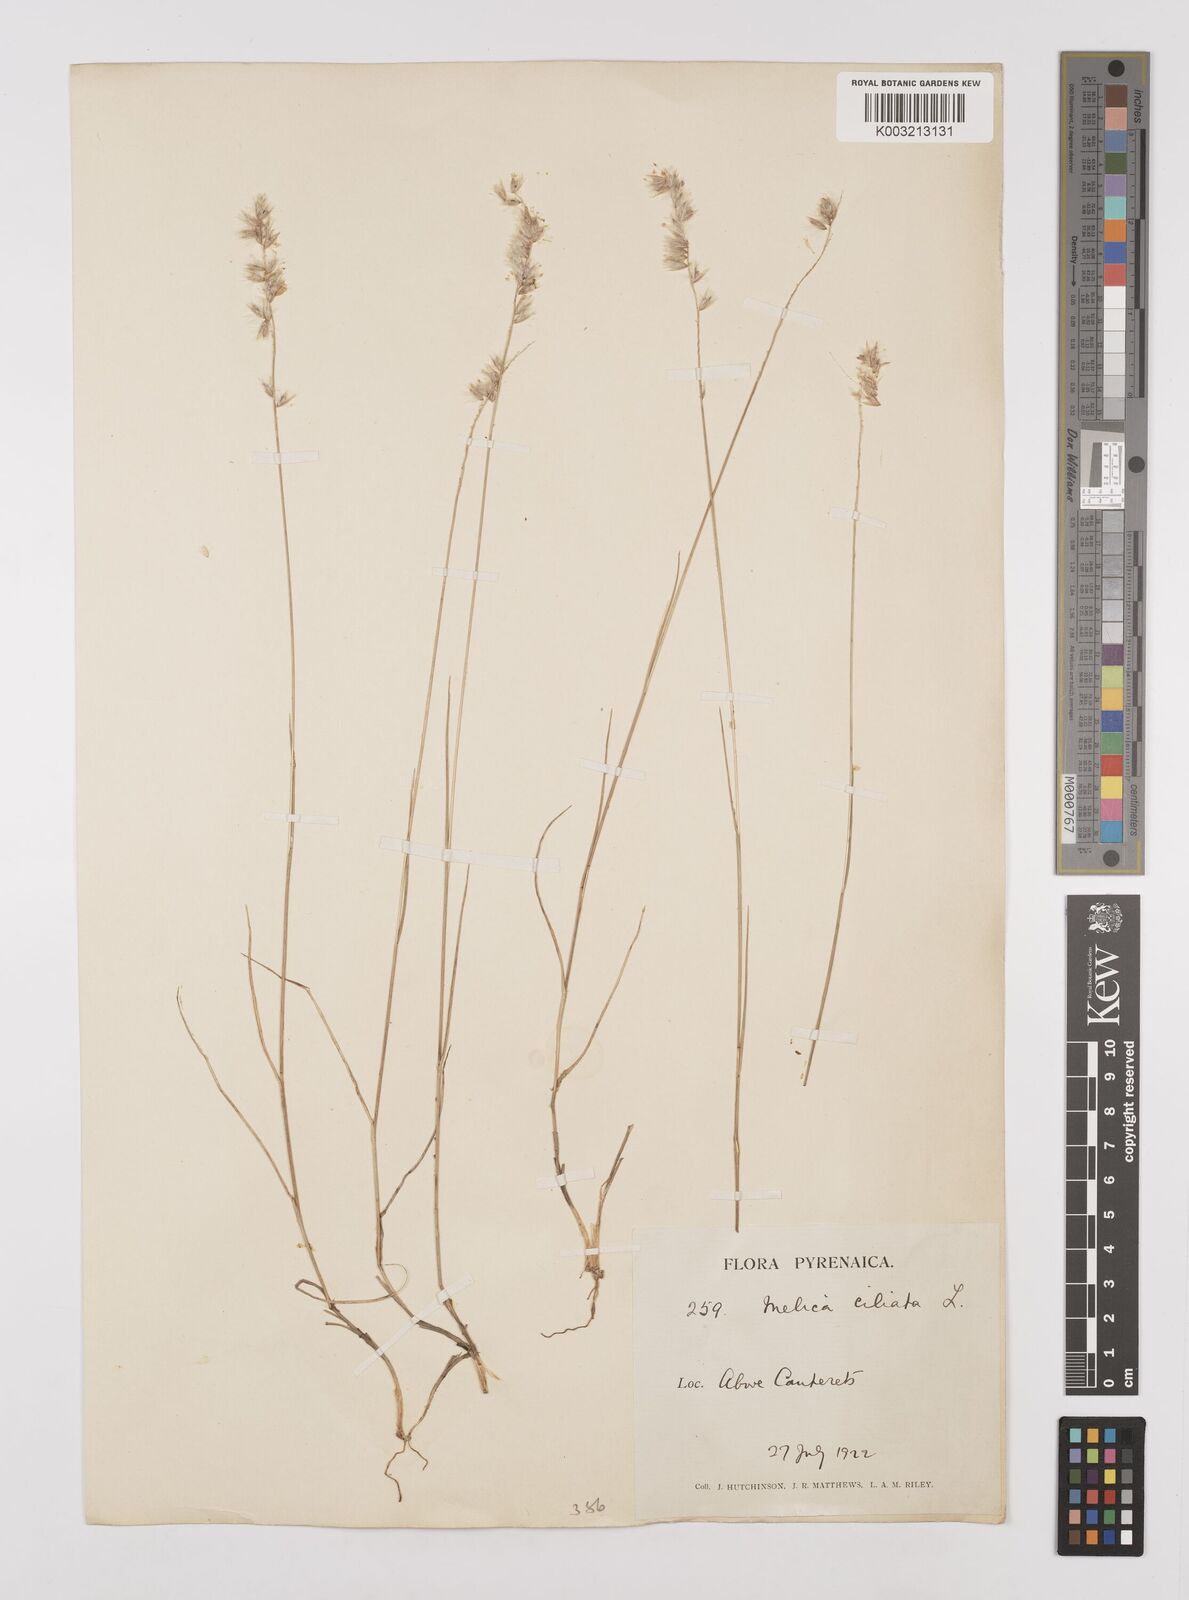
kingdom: Plantae
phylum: Tracheophyta
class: Liliopsida
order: Poales
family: Poaceae
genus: Melica
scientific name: Melica ciliata
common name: Hairy melicgrass
